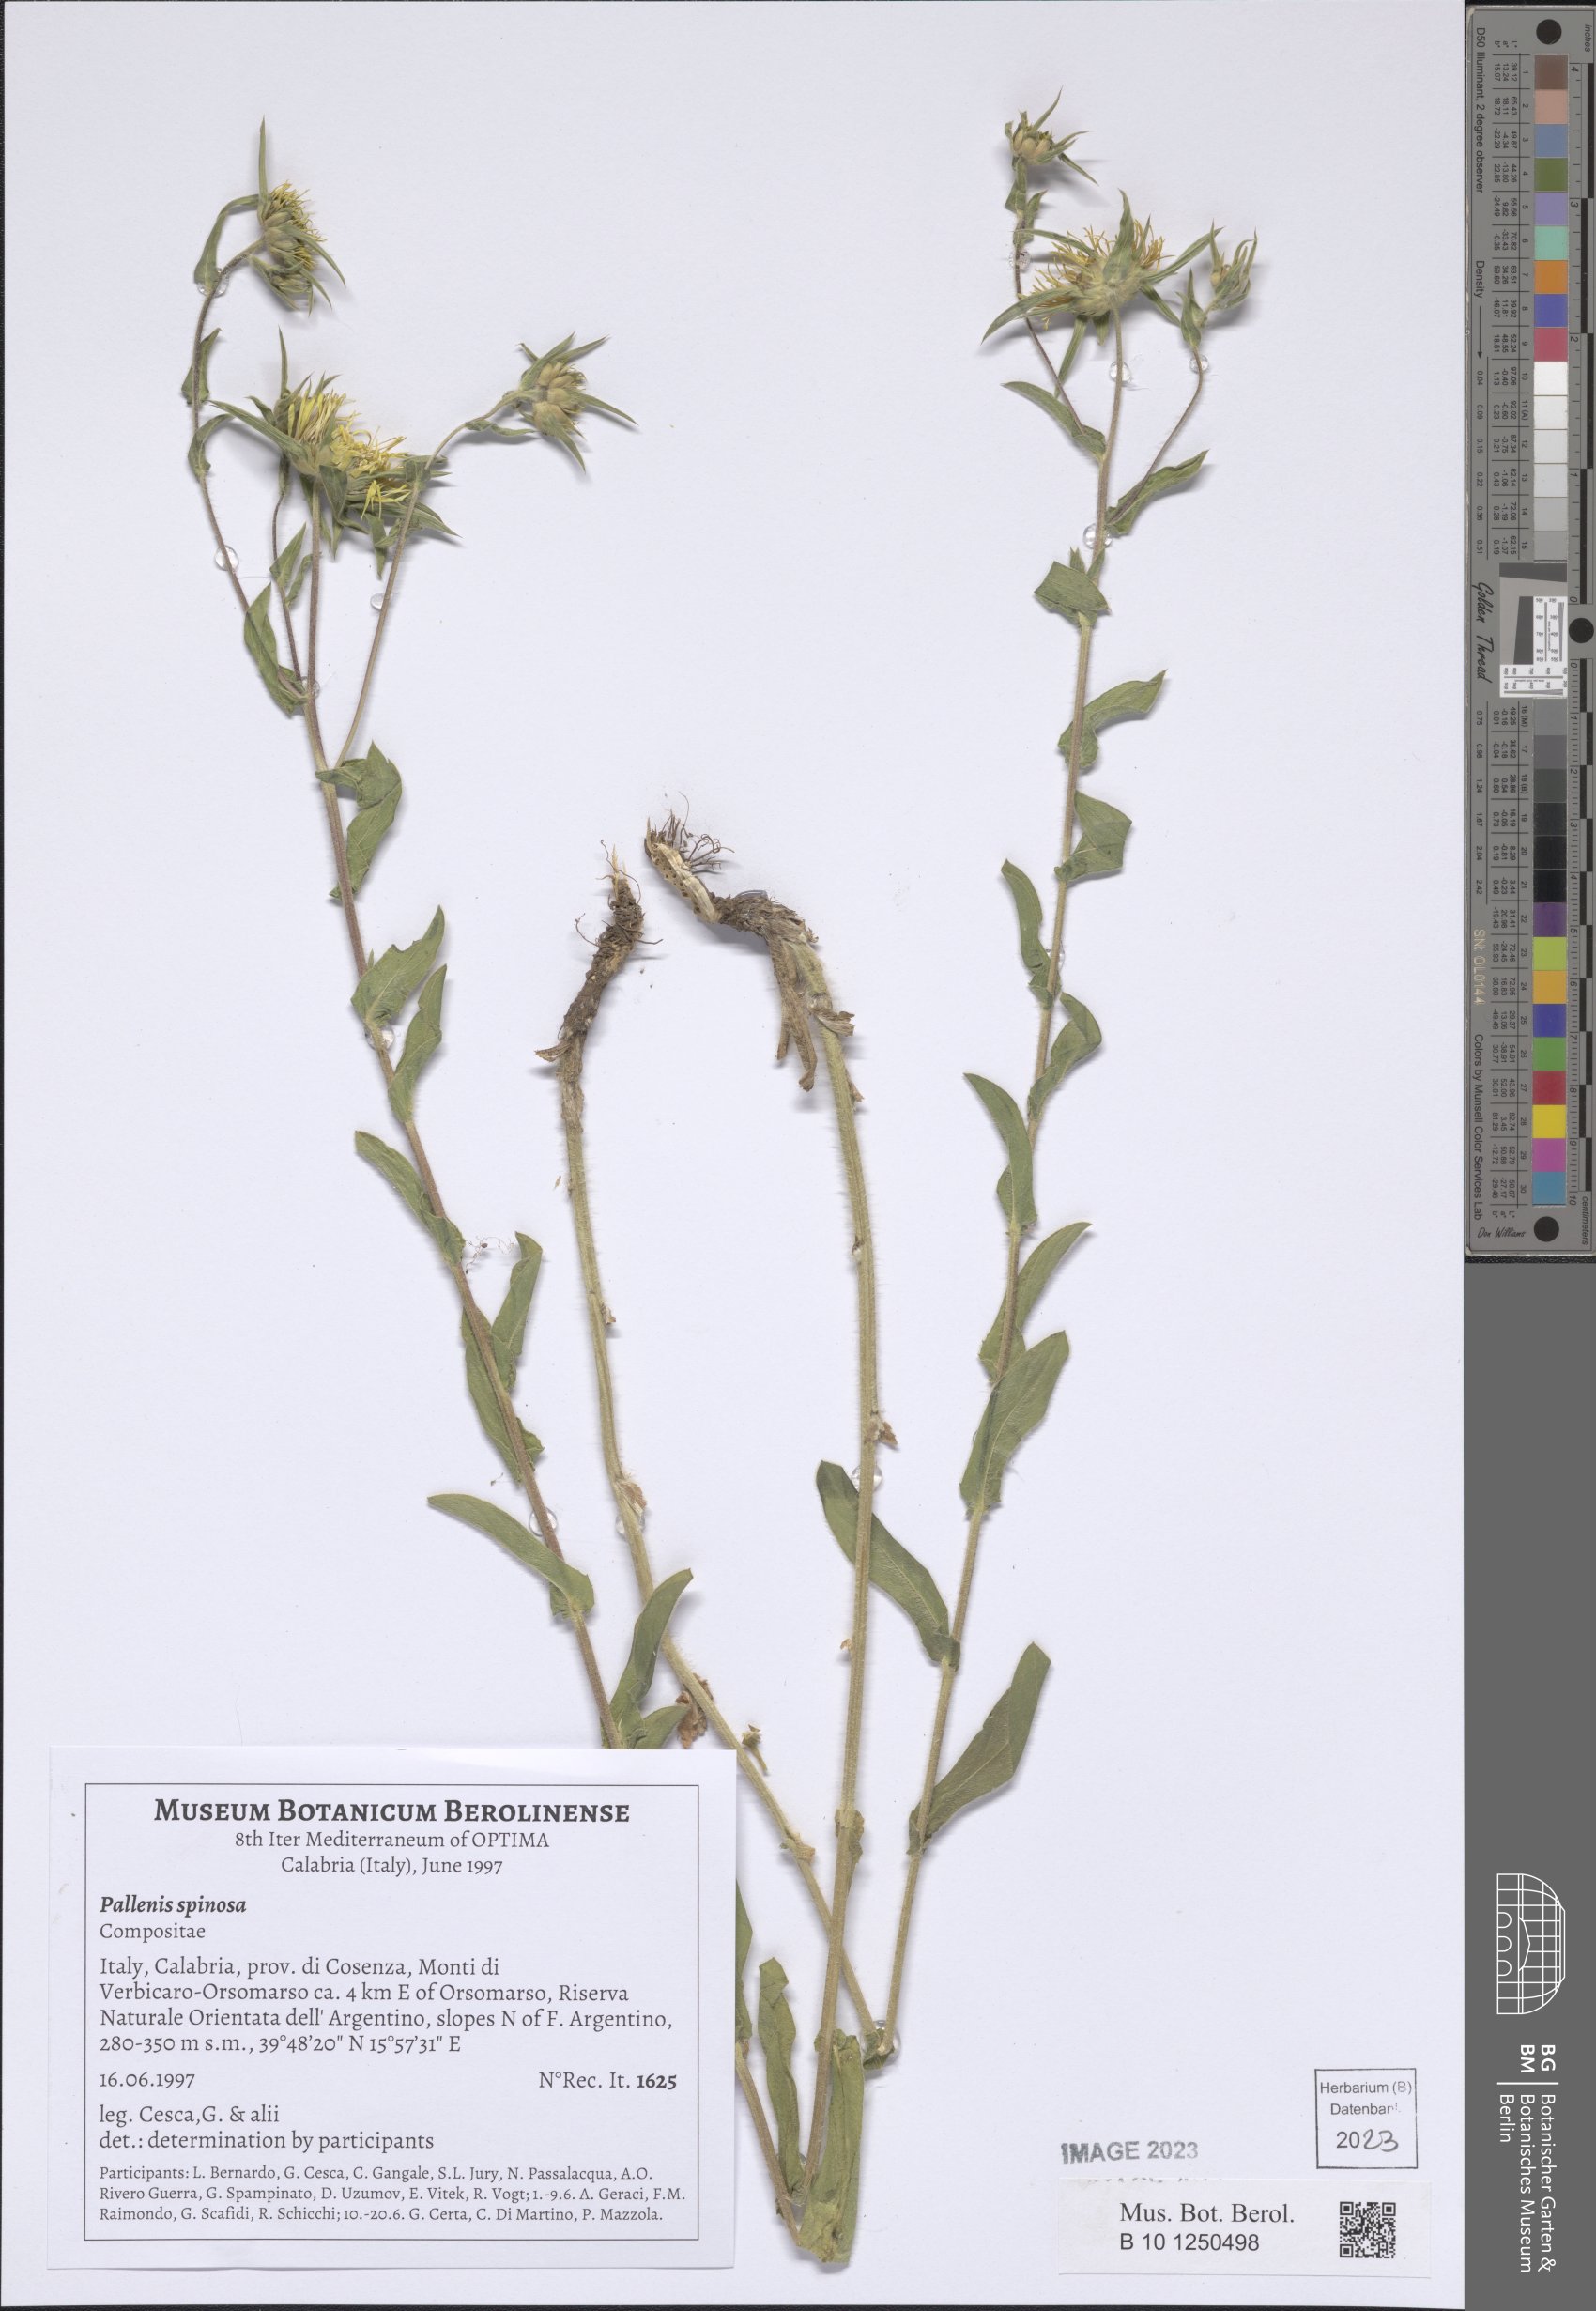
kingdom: Plantae
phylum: Tracheophyta
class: Magnoliopsida
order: Asterales
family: Asteraceae
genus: Pallenis
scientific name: Pallenis spinosa
